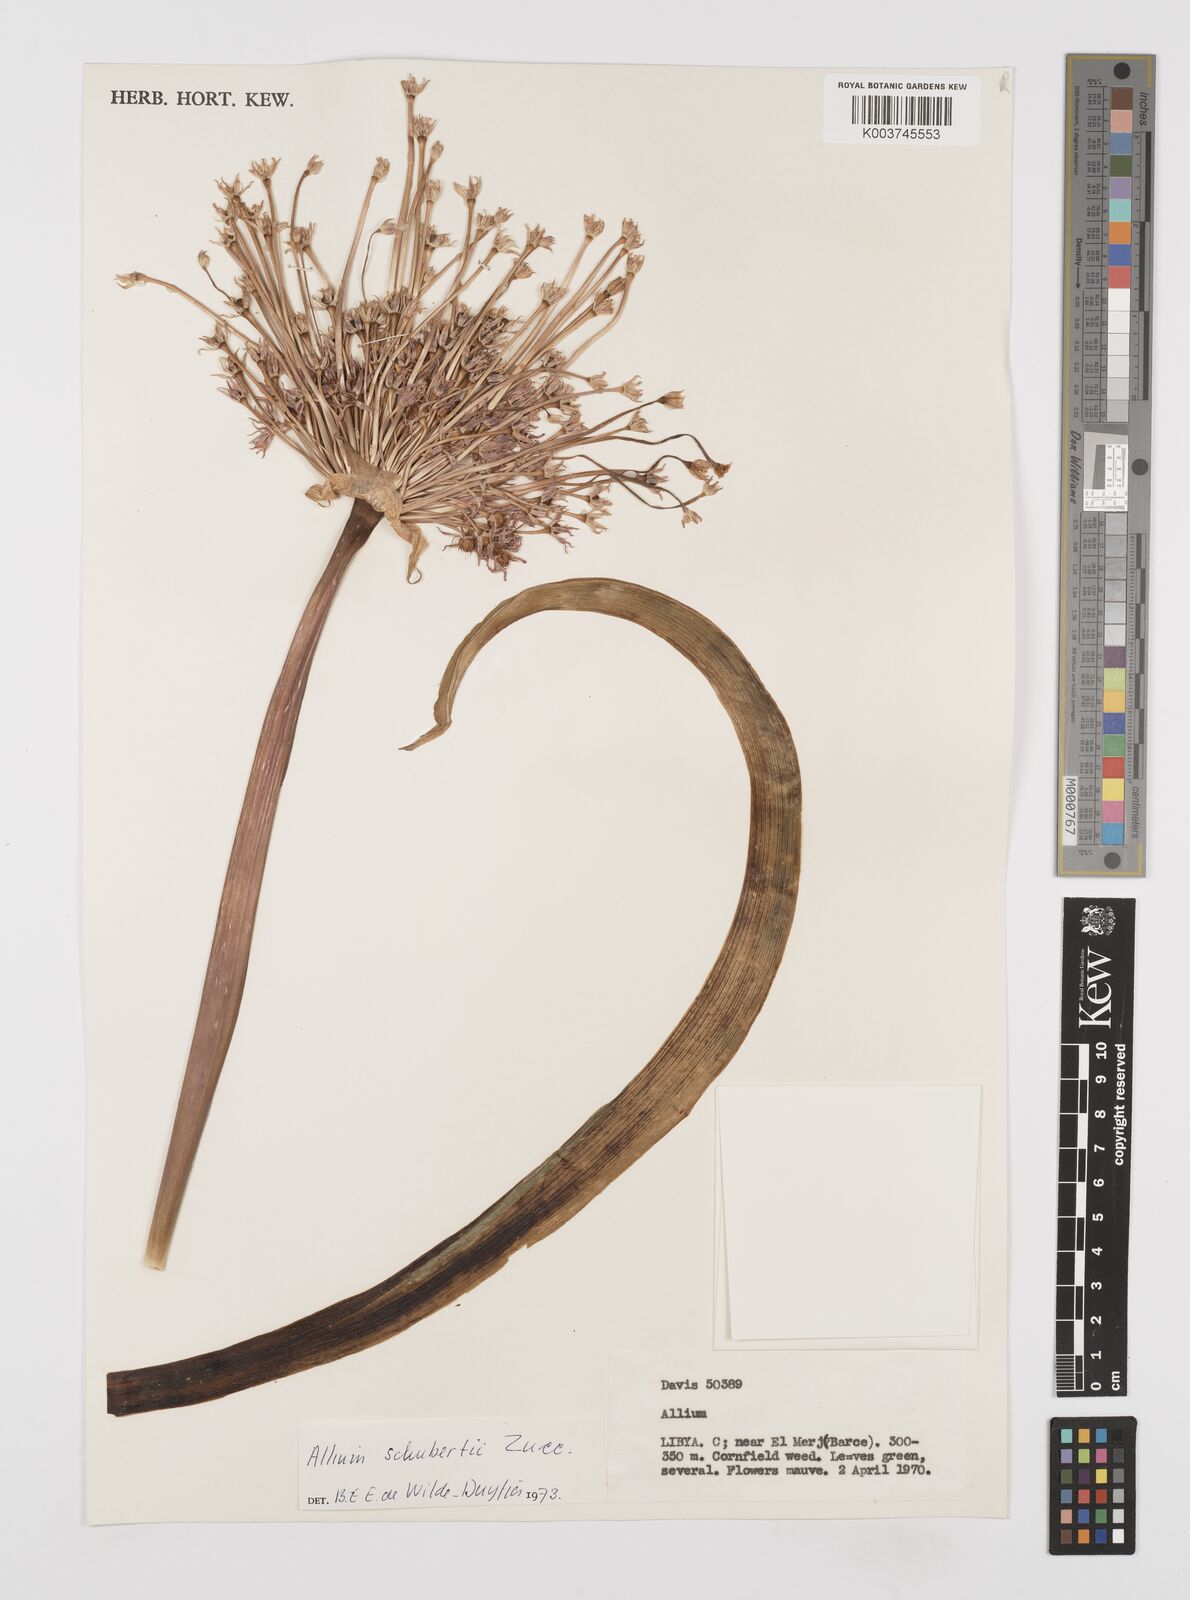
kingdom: Plantae
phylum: Tracheophyta
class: Liliopsida
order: Asparagales
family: Amaryllidaceae
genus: Allium
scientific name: Allium schubertii
